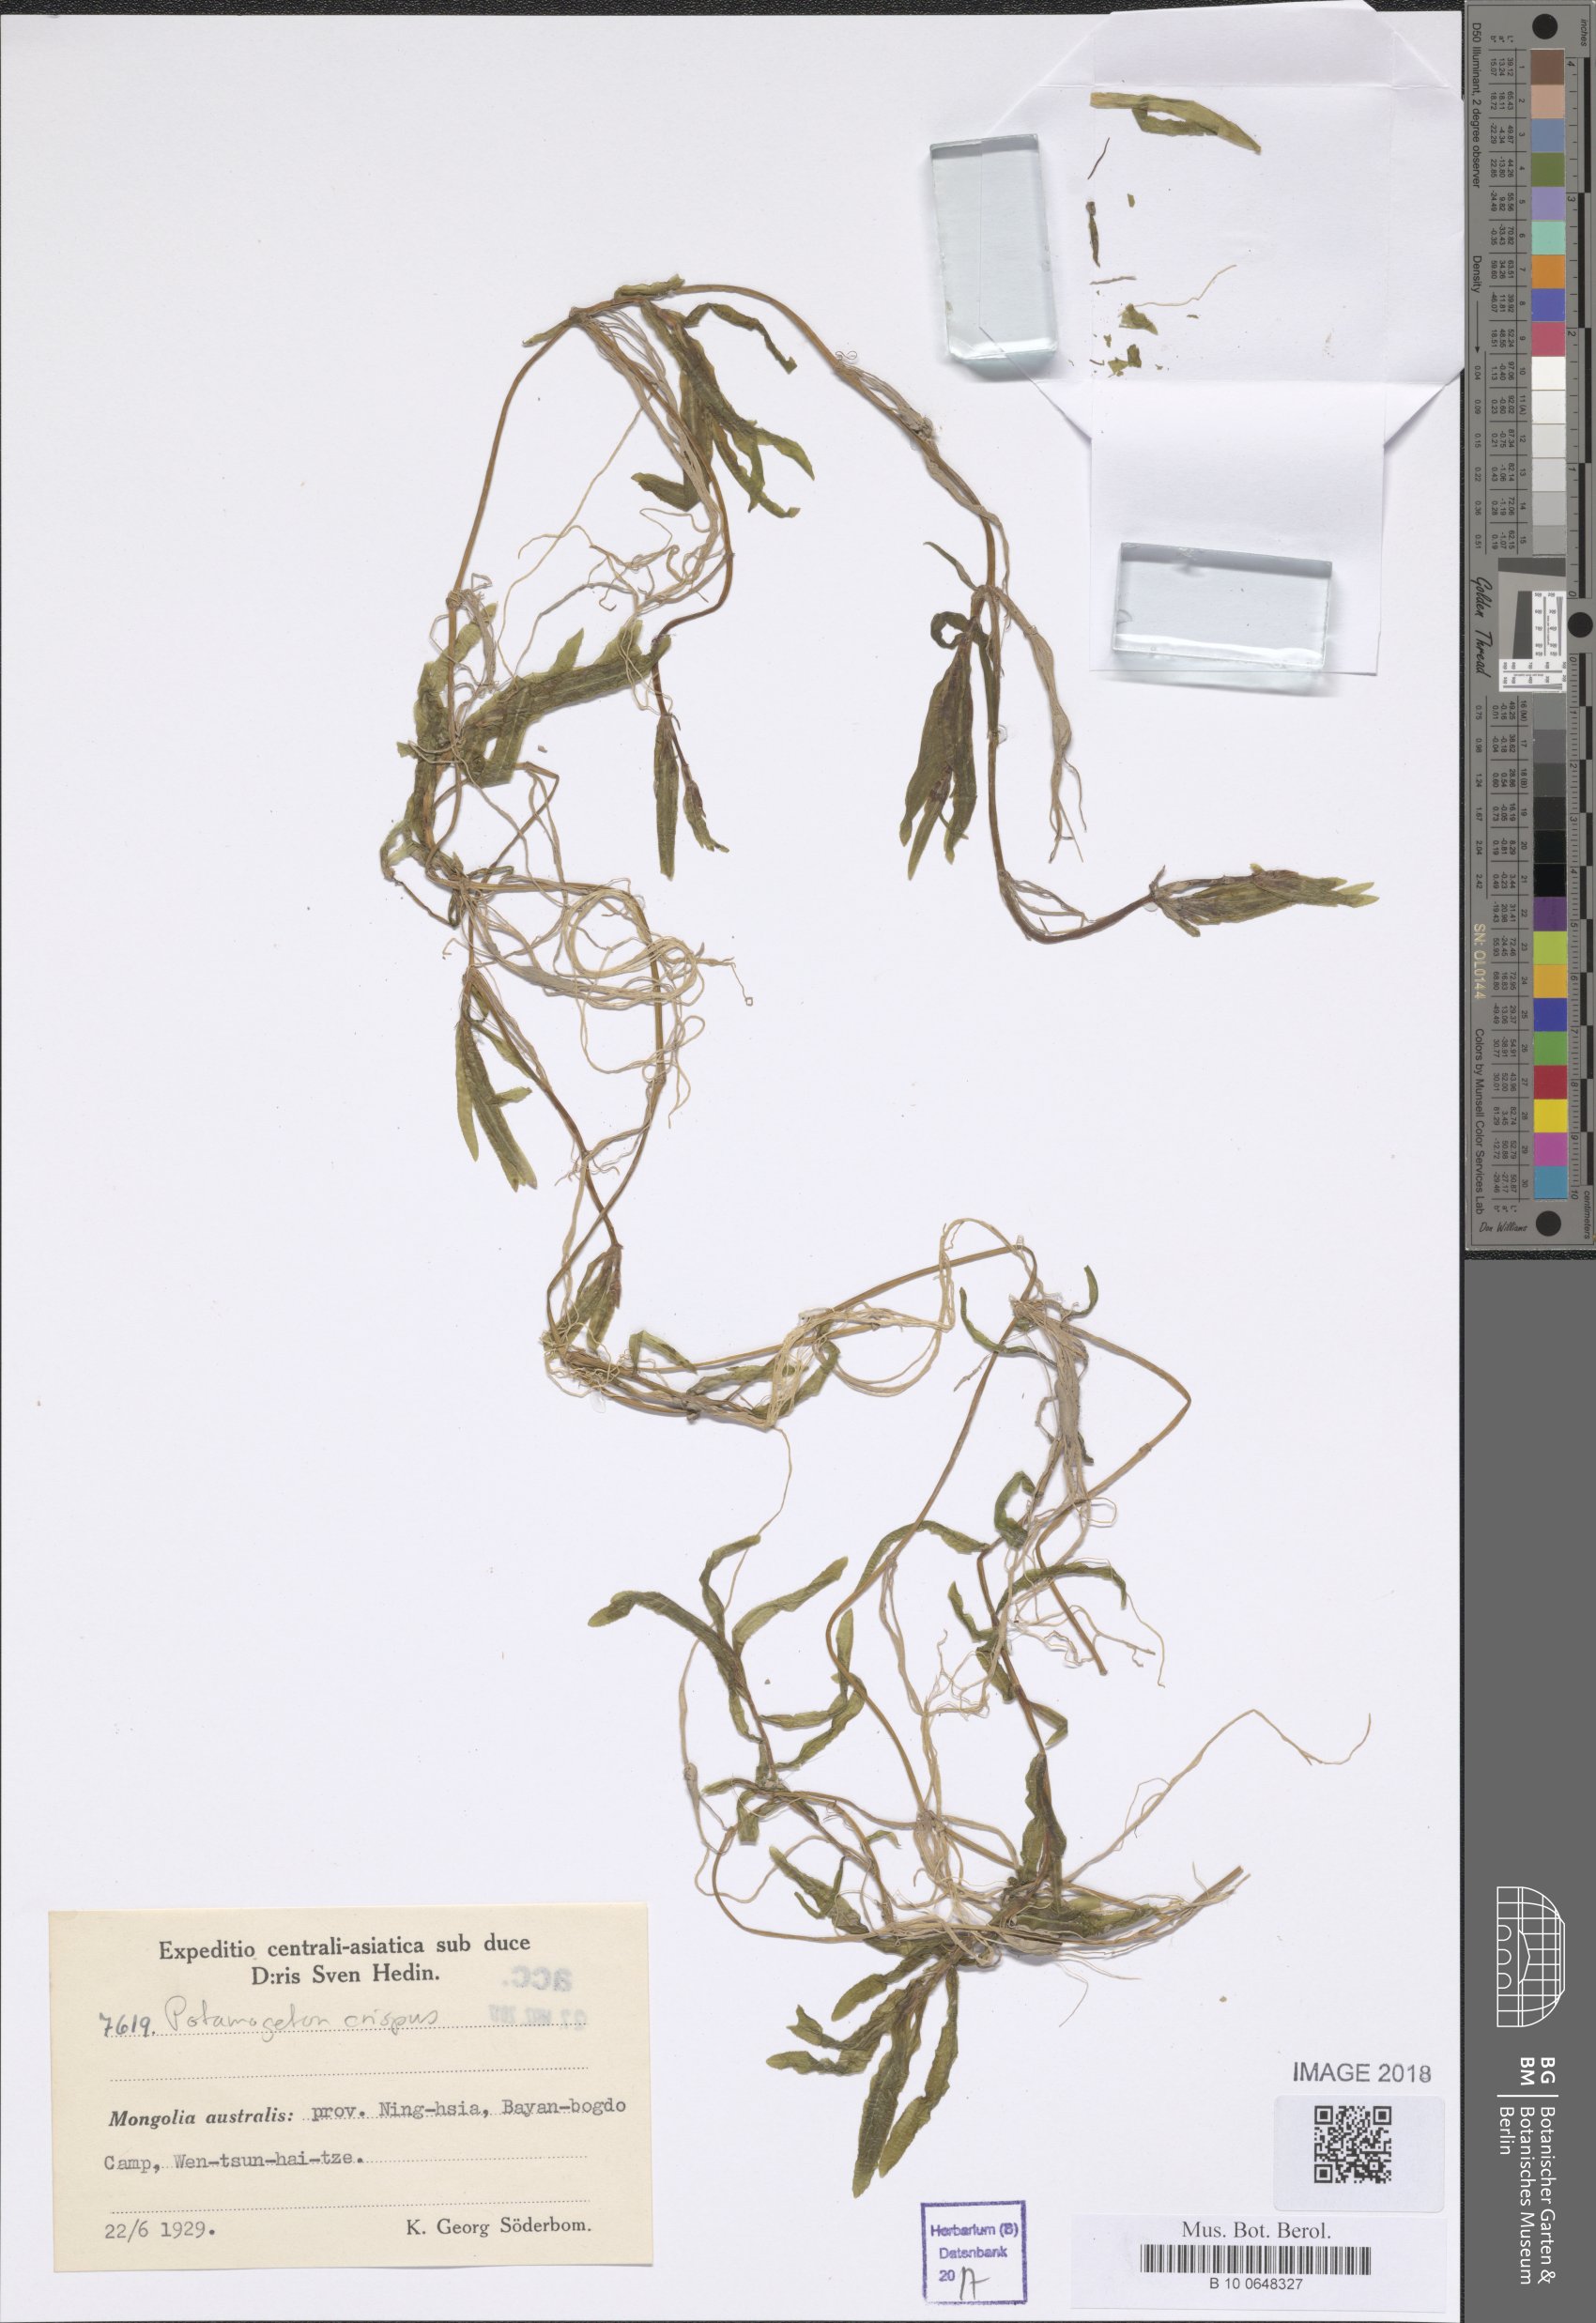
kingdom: Plantae
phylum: Tracheophyta
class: Liliopsida
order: Alismatales
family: Potamogetonaceae
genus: Potamogeton
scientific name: Potamogeton crispus
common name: Curled pondweed
